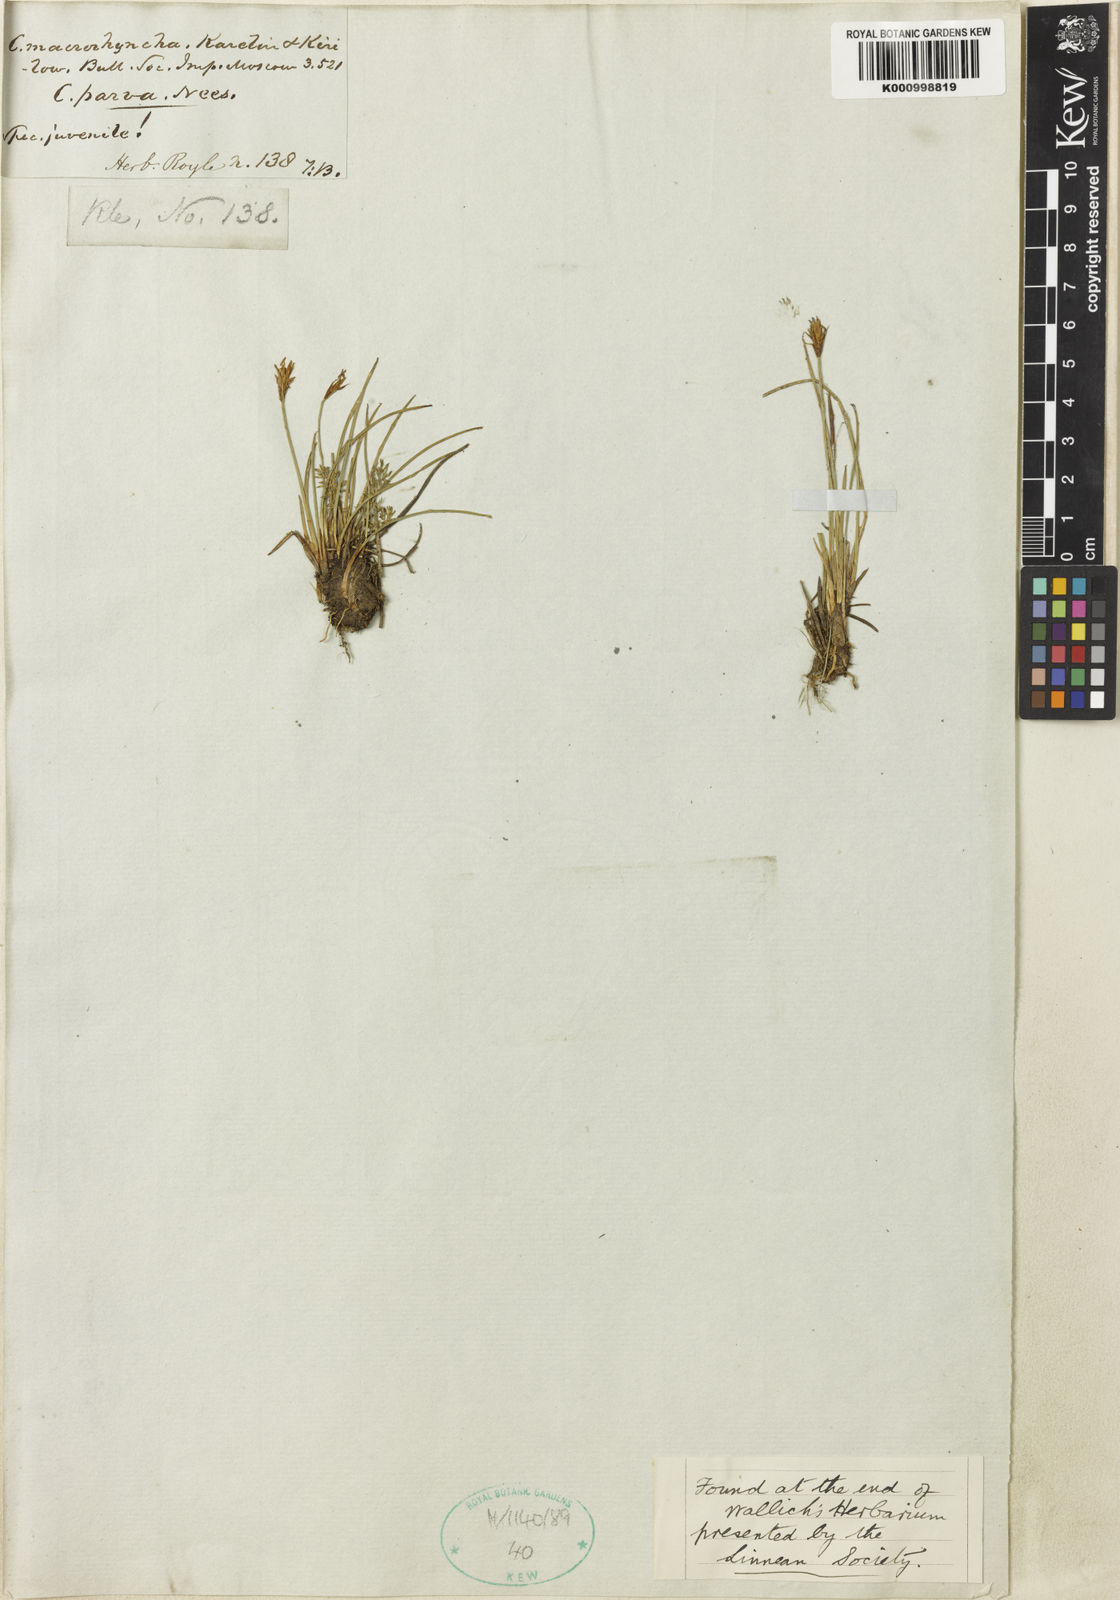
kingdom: Plantae
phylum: Tracheophyta
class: Liliopsida
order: Poales
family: Cyperaceae
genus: Carex
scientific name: Carex parva
